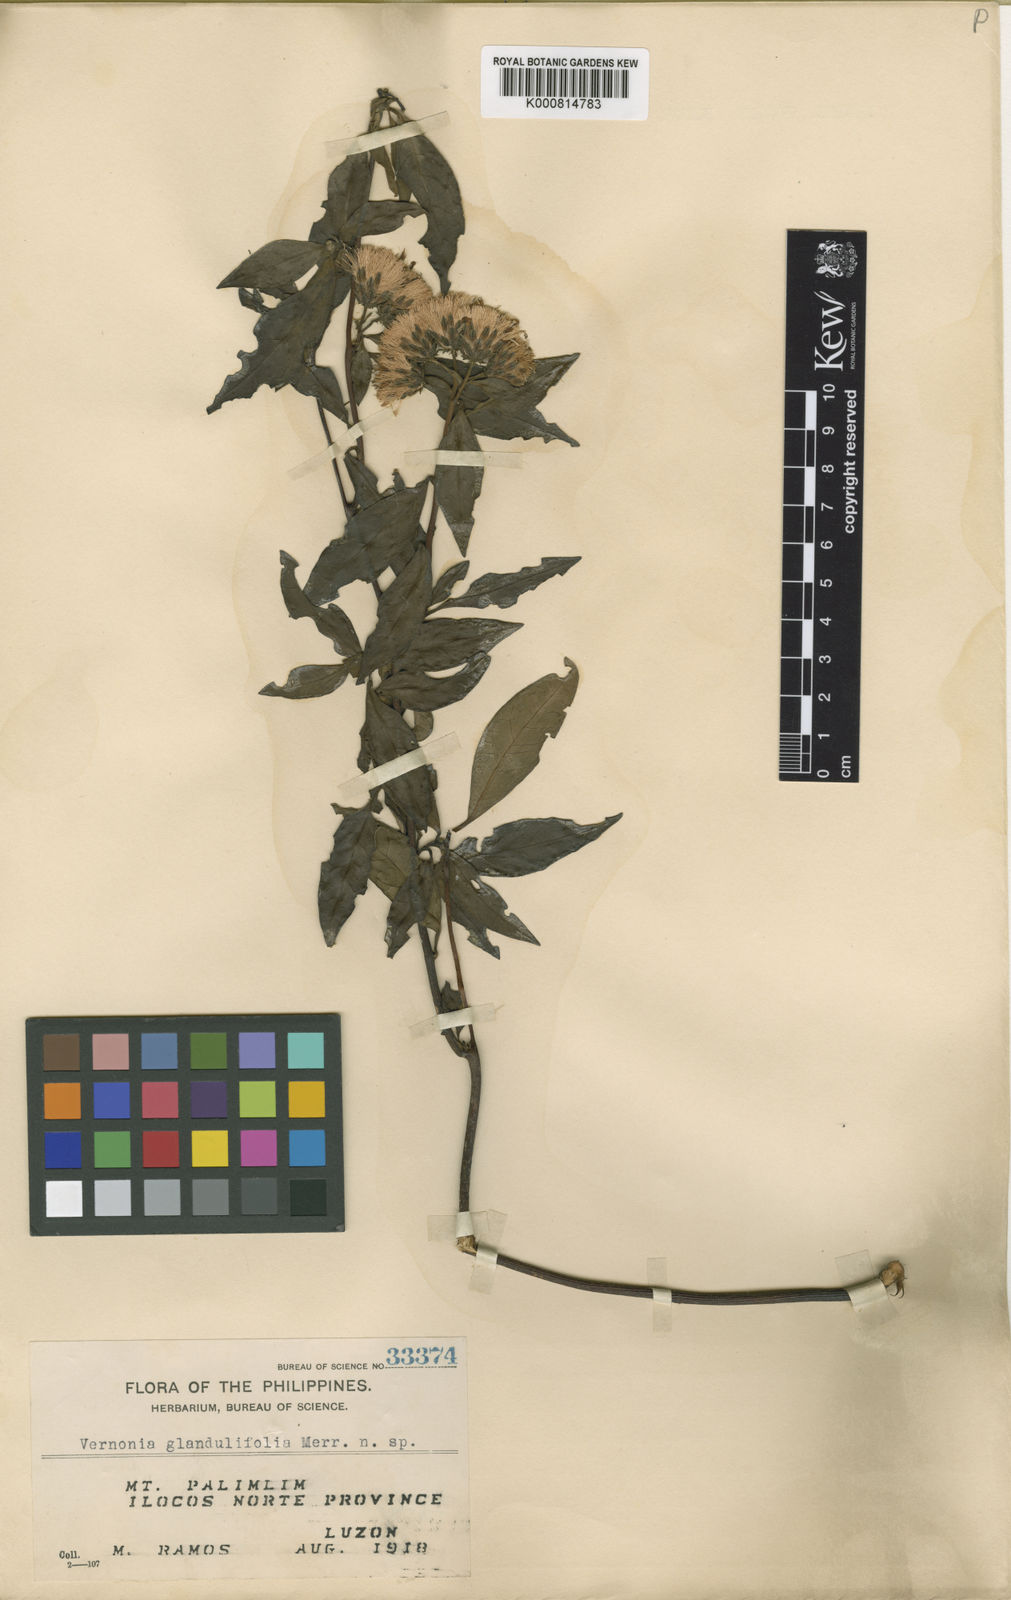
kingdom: Plantae
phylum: Tracheophyta
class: Magnoliopsida
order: Asterales
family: Asteraceae
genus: Vernonia
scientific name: Vernonia glandulifolia
